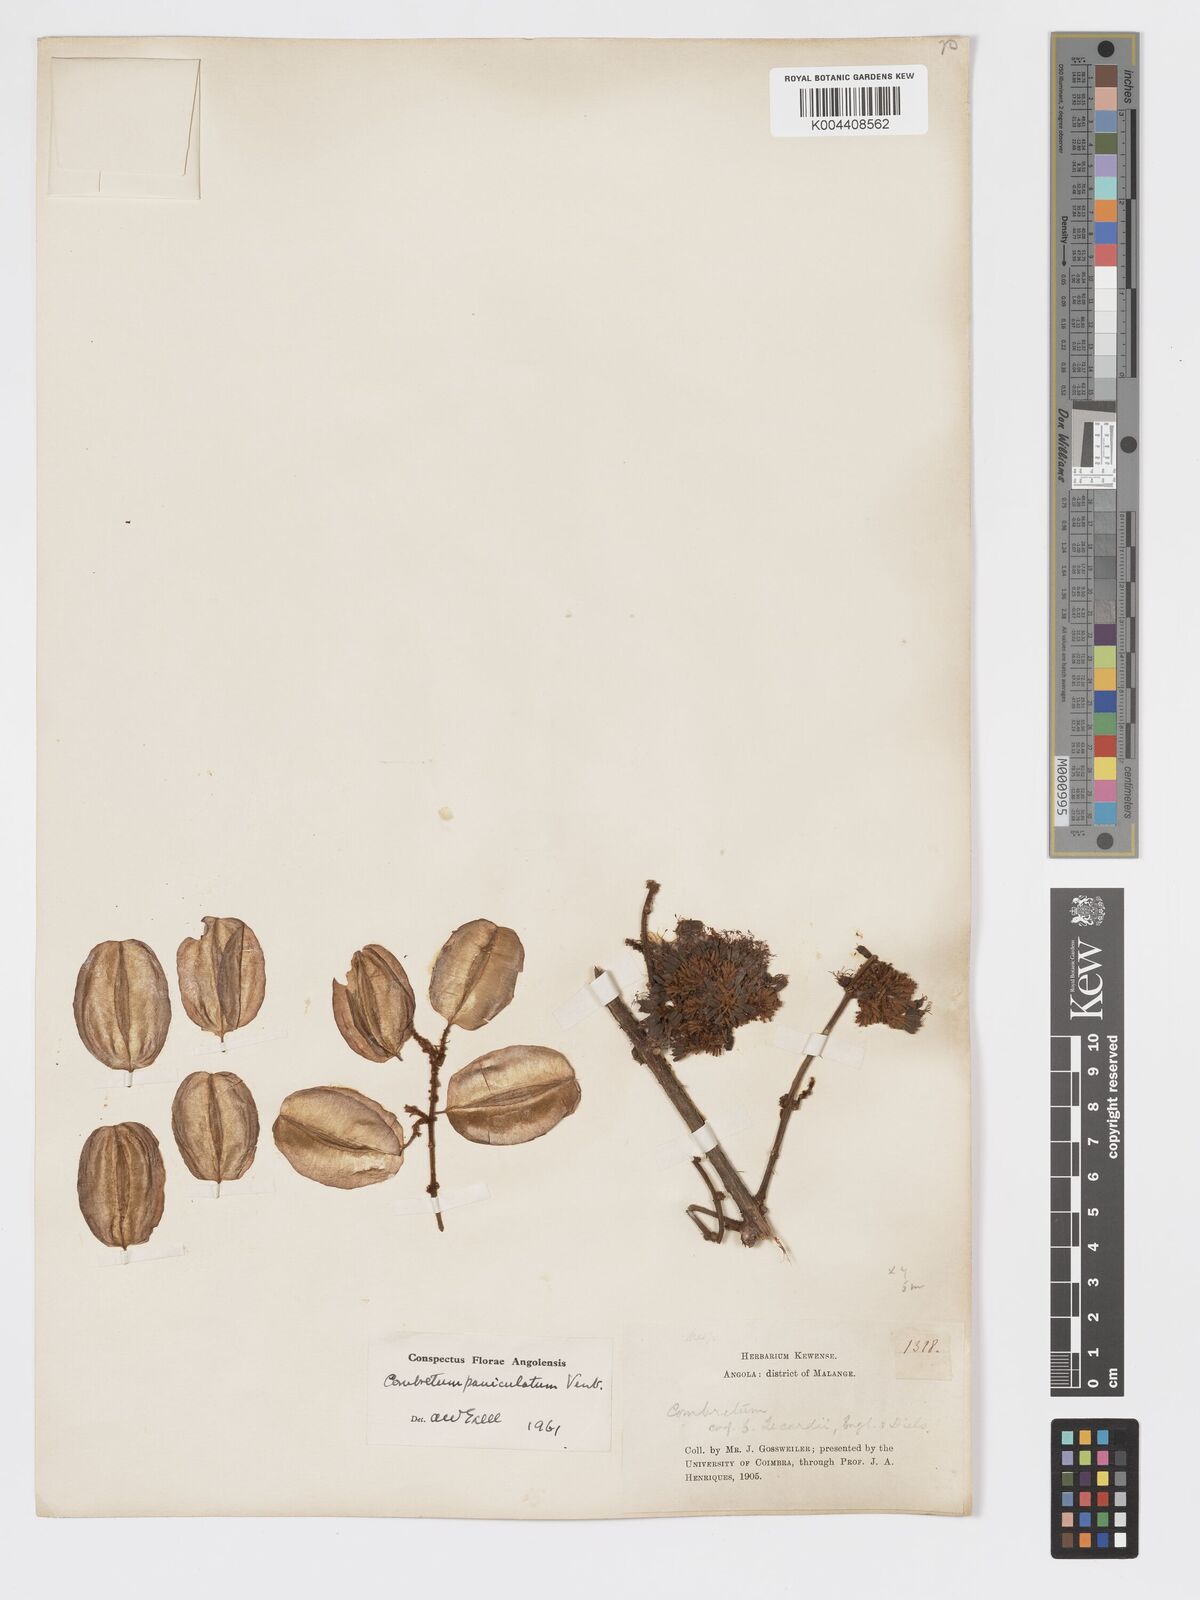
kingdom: Plantae
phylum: Tracheophyta
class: Magnoliopsida
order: Myrtales
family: Combretaceae
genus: Combretum
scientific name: Combretum paniculatum
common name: Fire vine
